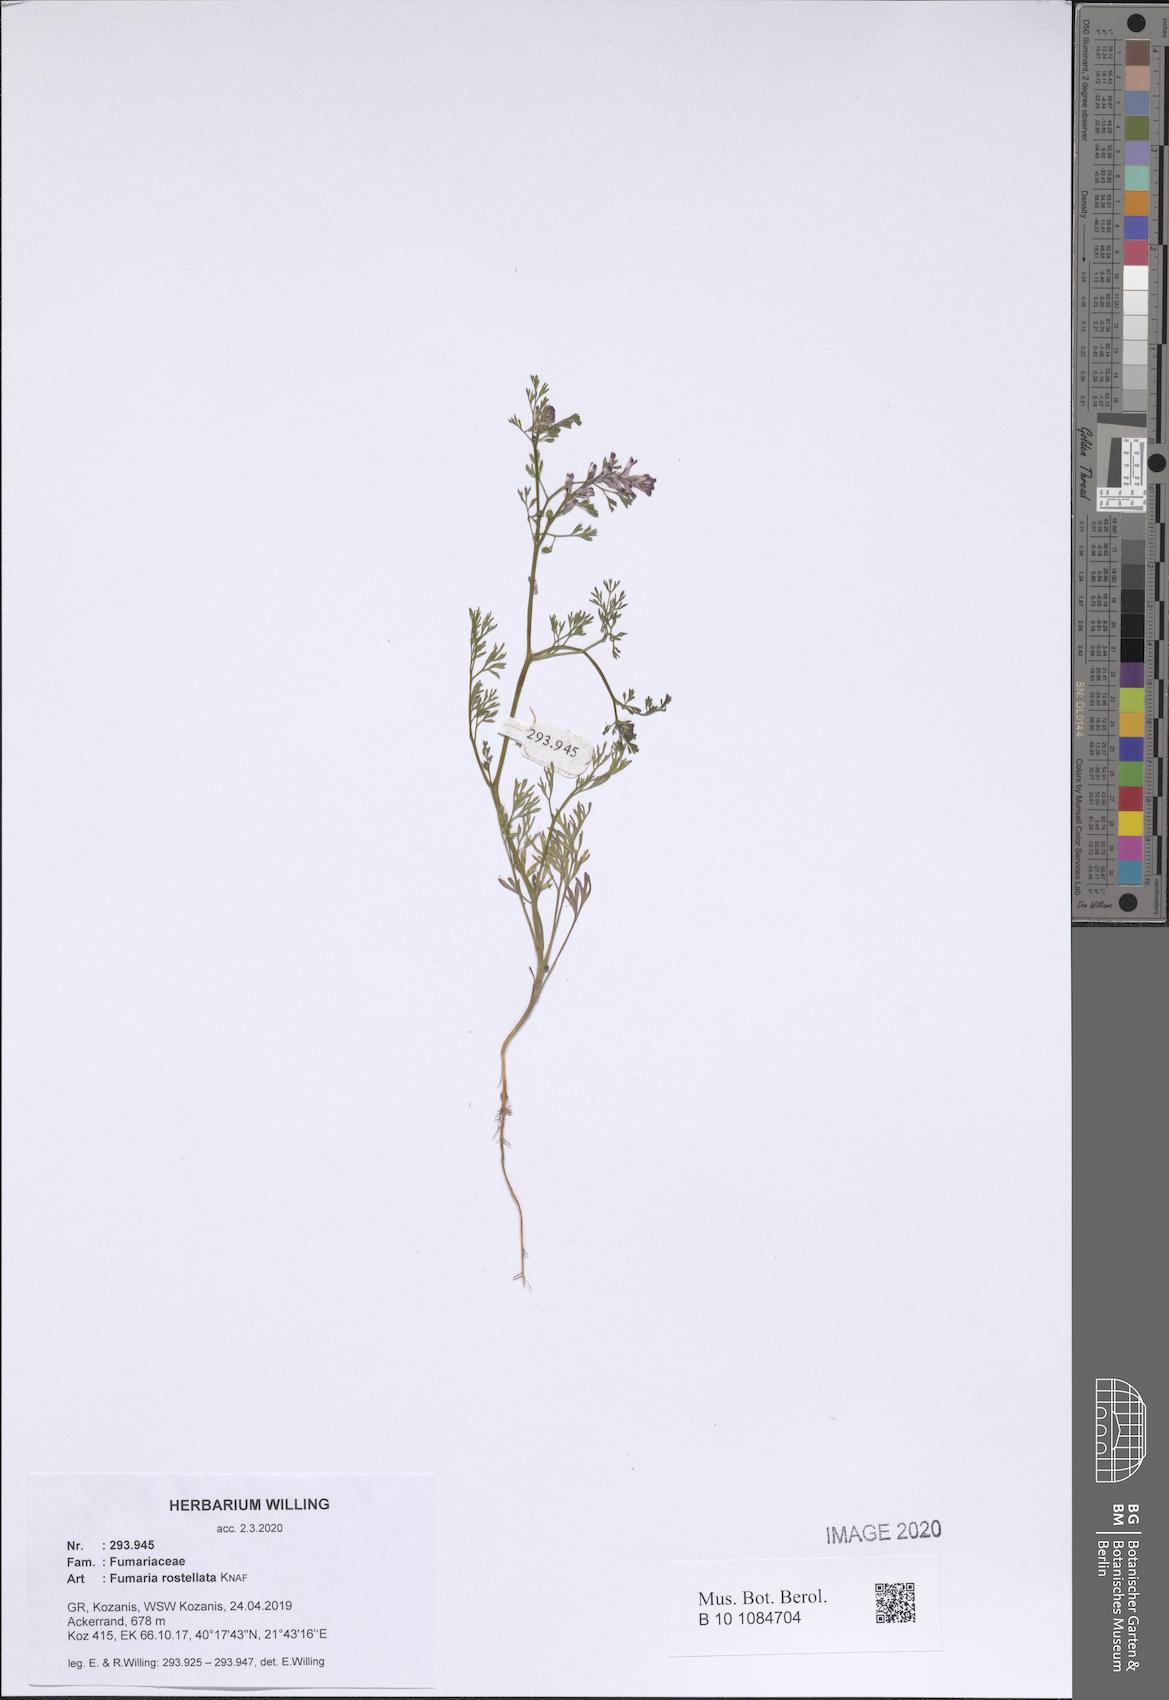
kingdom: Plantae
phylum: Tracheophyta
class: Magnoliopsida
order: Ranunculales
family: Papaveraceae
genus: Fumaria
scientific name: Fumaria rostellata
